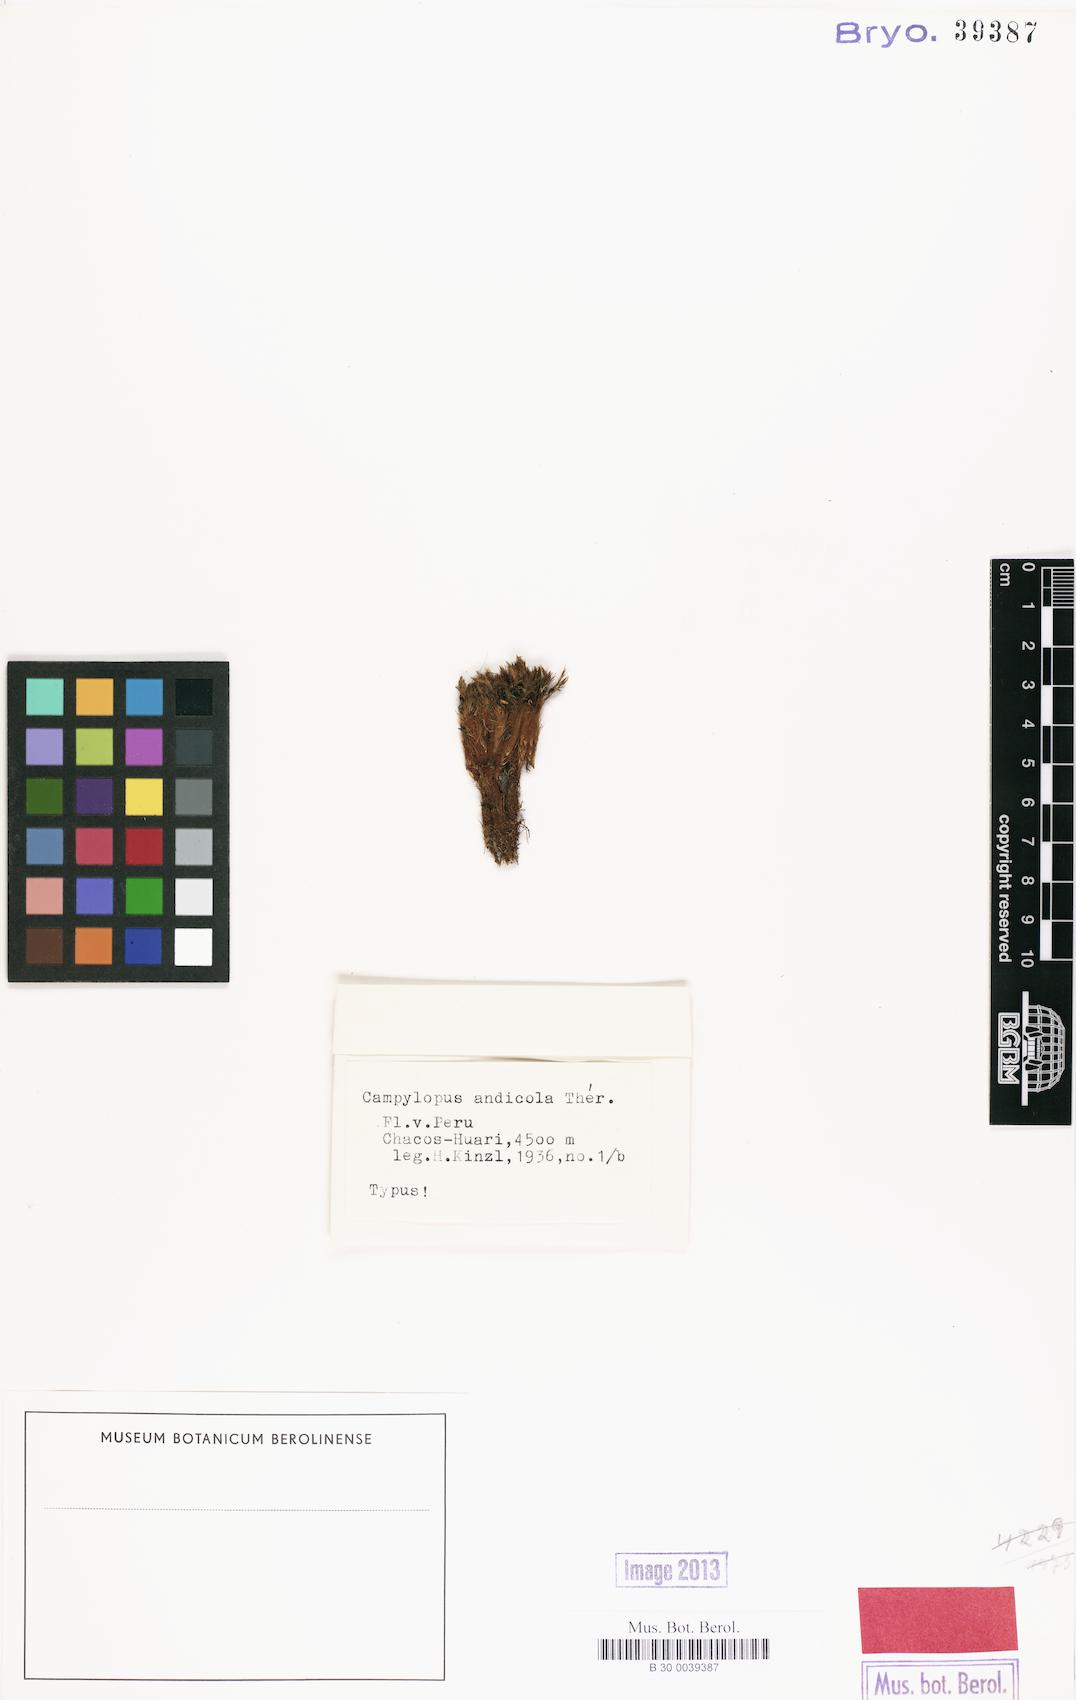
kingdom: Plantae
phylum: Bryophyta
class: Bryopsida
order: Dicranales
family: Leucobryaceae
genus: Campylopus
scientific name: Campylopus edithae
